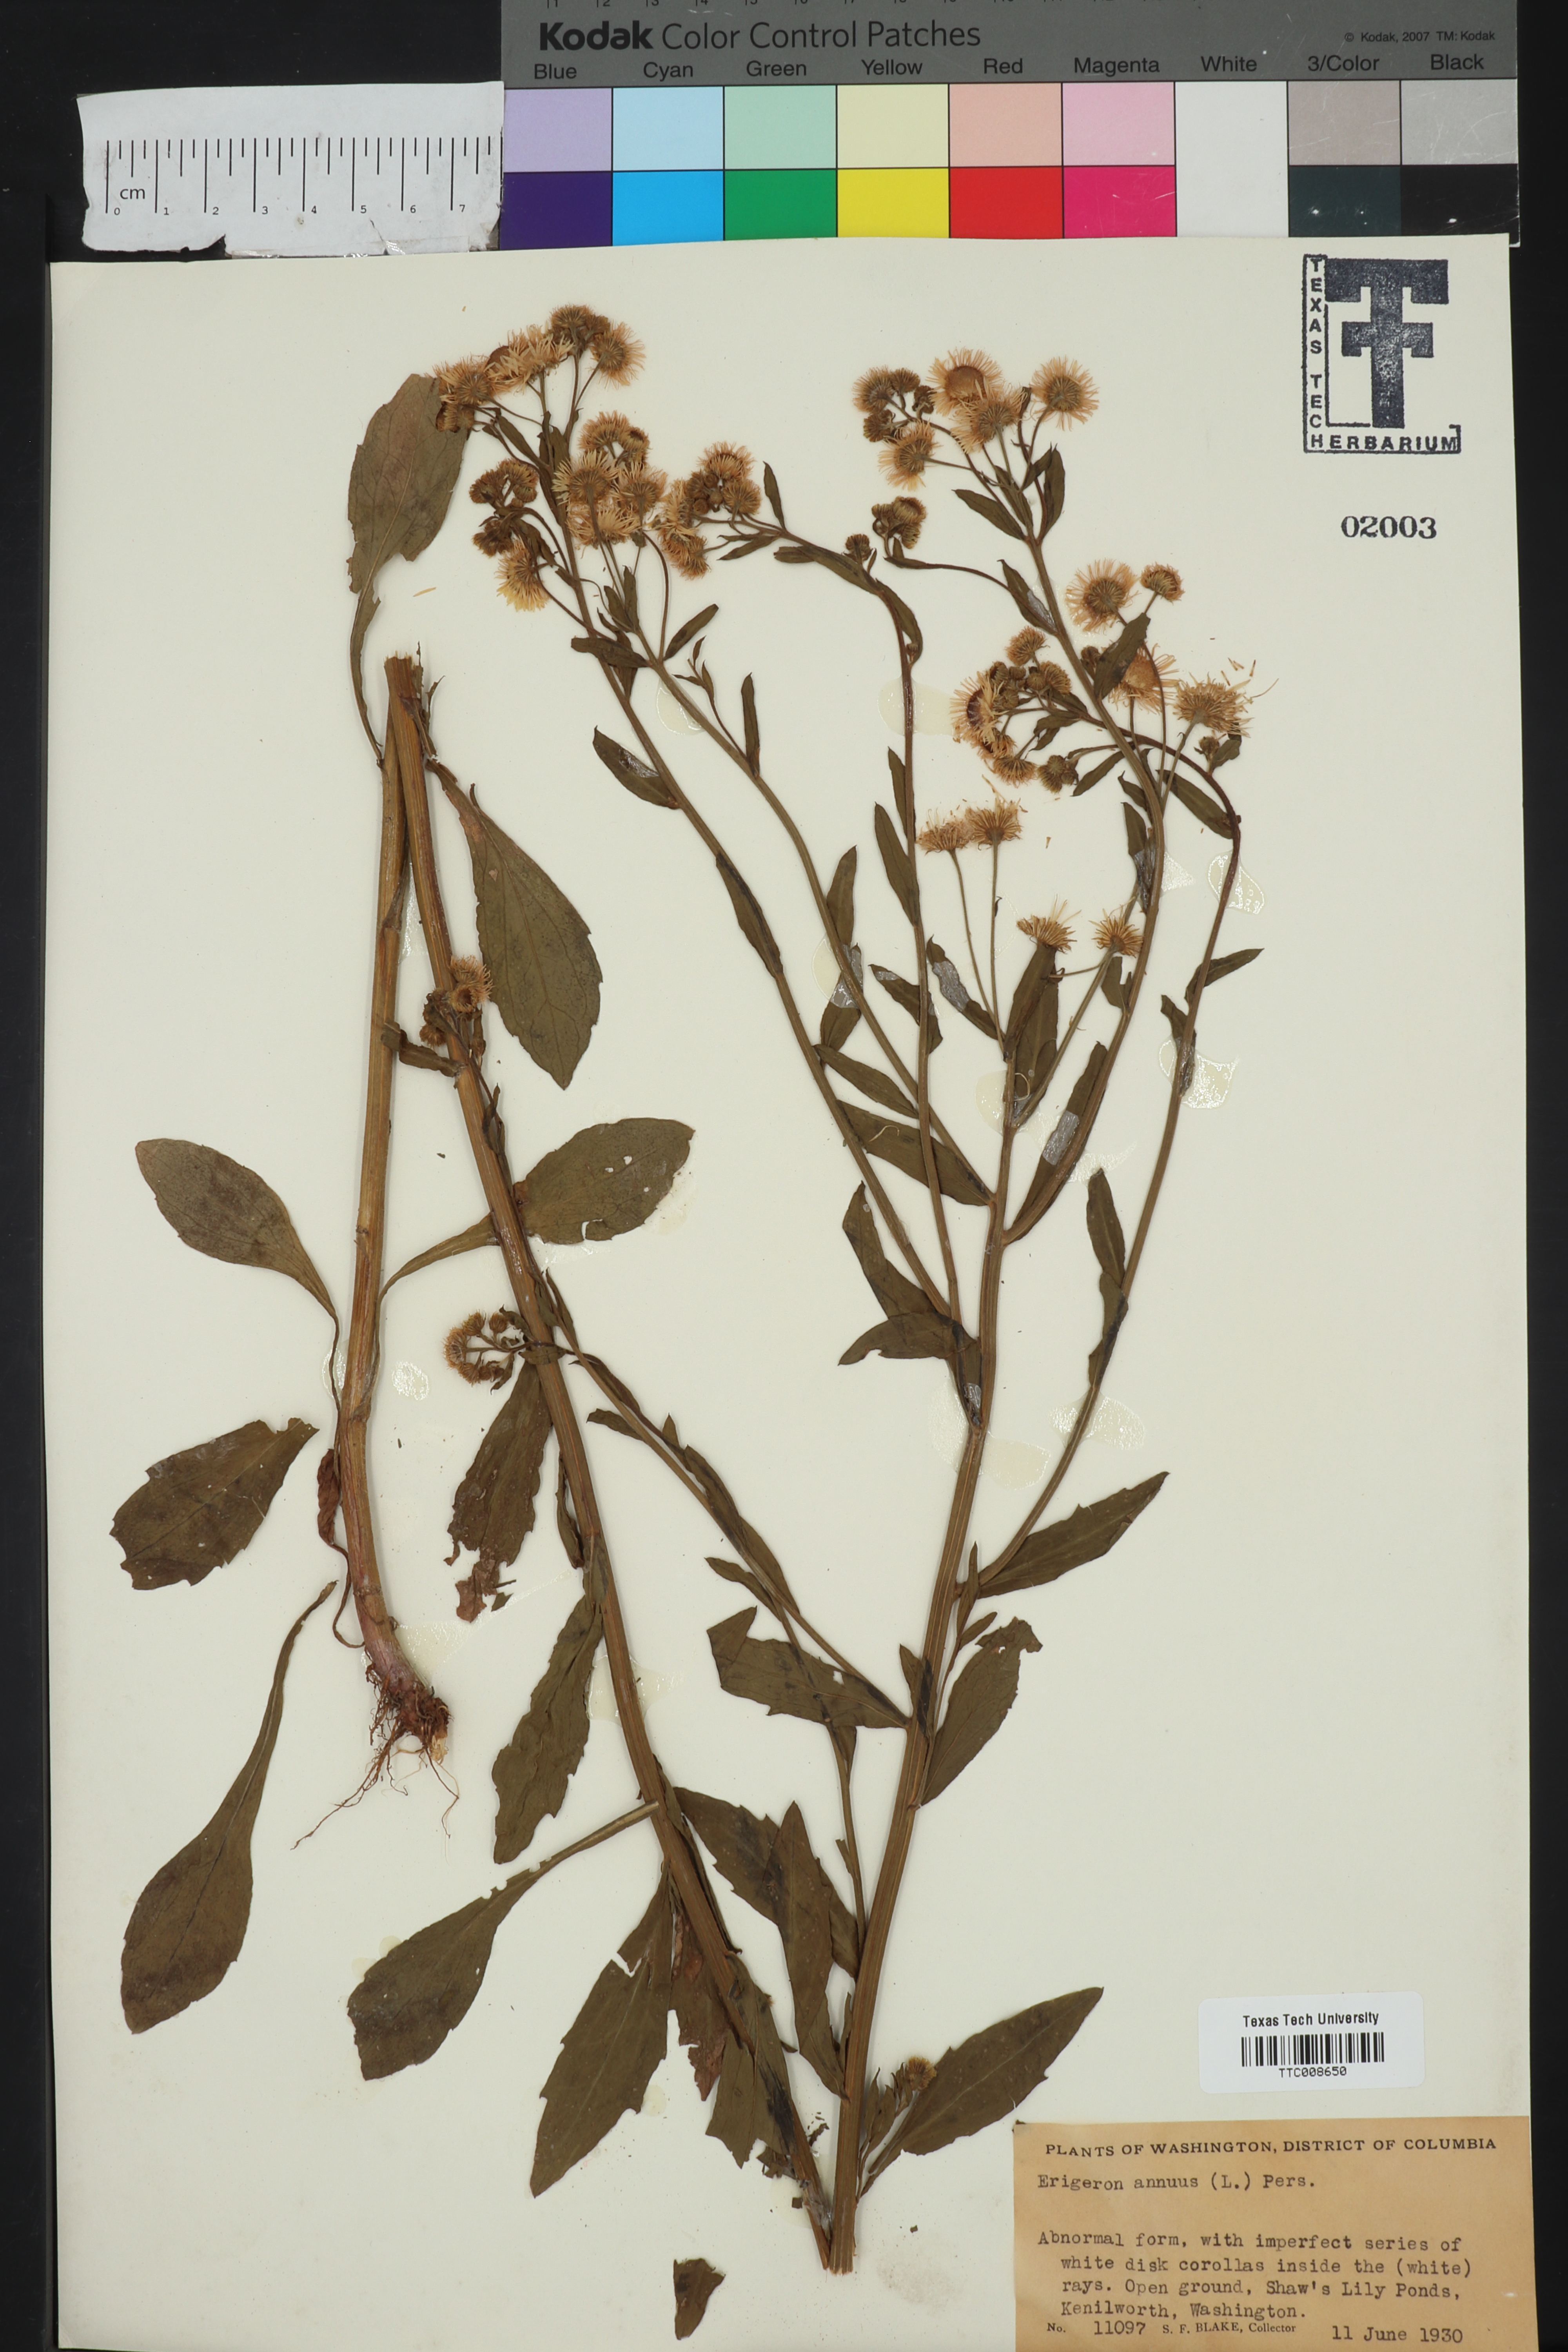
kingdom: Plantae
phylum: Tracheophyta
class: Magnoliopsida
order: Asterales
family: Asteraceae
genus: Erigeron
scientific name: Erigeron annuus
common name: Tall fleabane
